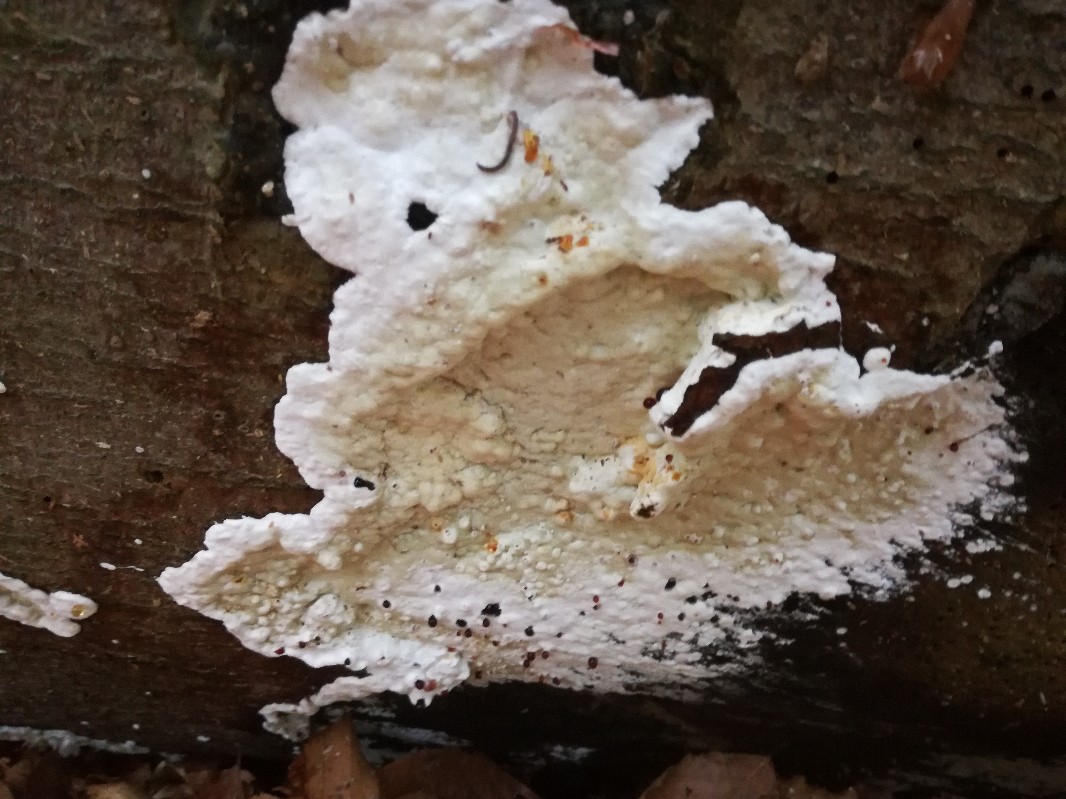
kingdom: Fungi
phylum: Basidiomycota
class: Agaricomycetes
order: Polyporales
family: Irpicaceae
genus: Gloeoporus
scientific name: Gloeoporus pannocinctus
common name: grøngul foldporesvamp
